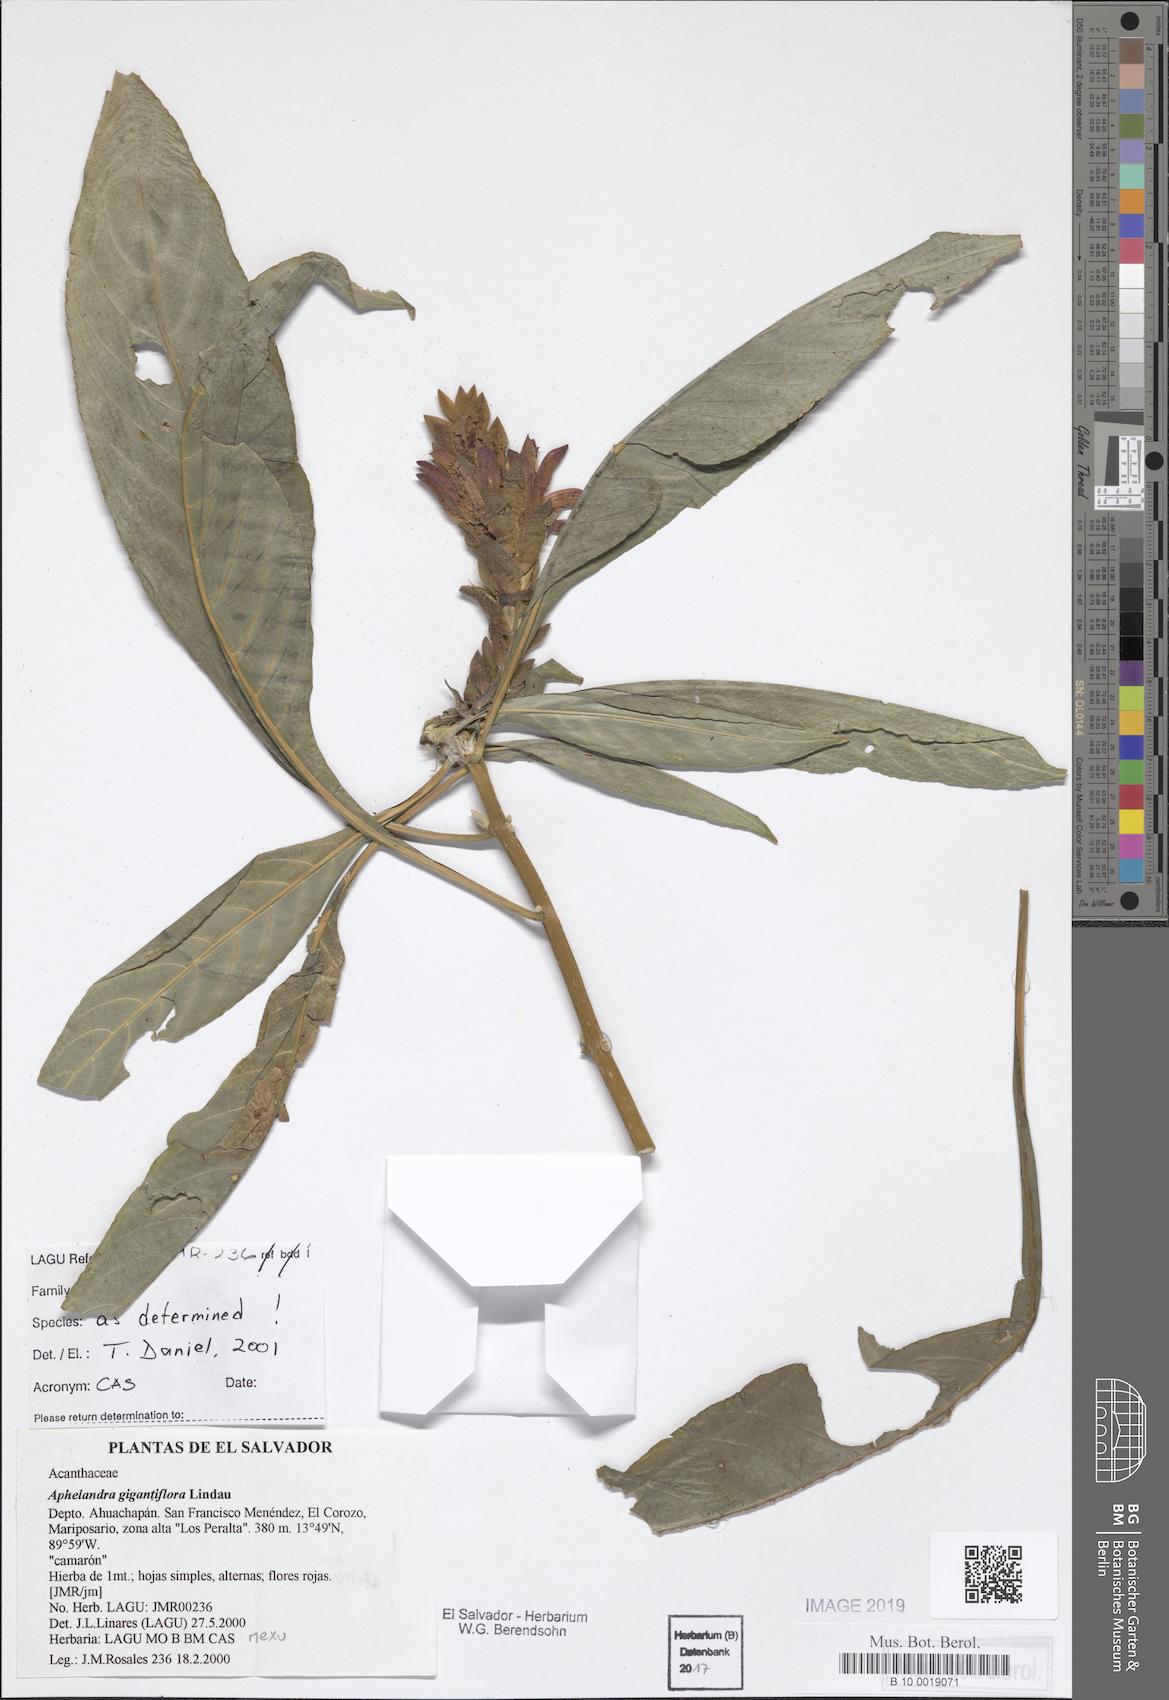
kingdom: Plantae
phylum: Tracheophyta
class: Magnoliopsida
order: Lamiales
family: Acanthaceae
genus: Aphelandra
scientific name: Aphelandra gigantiflora
